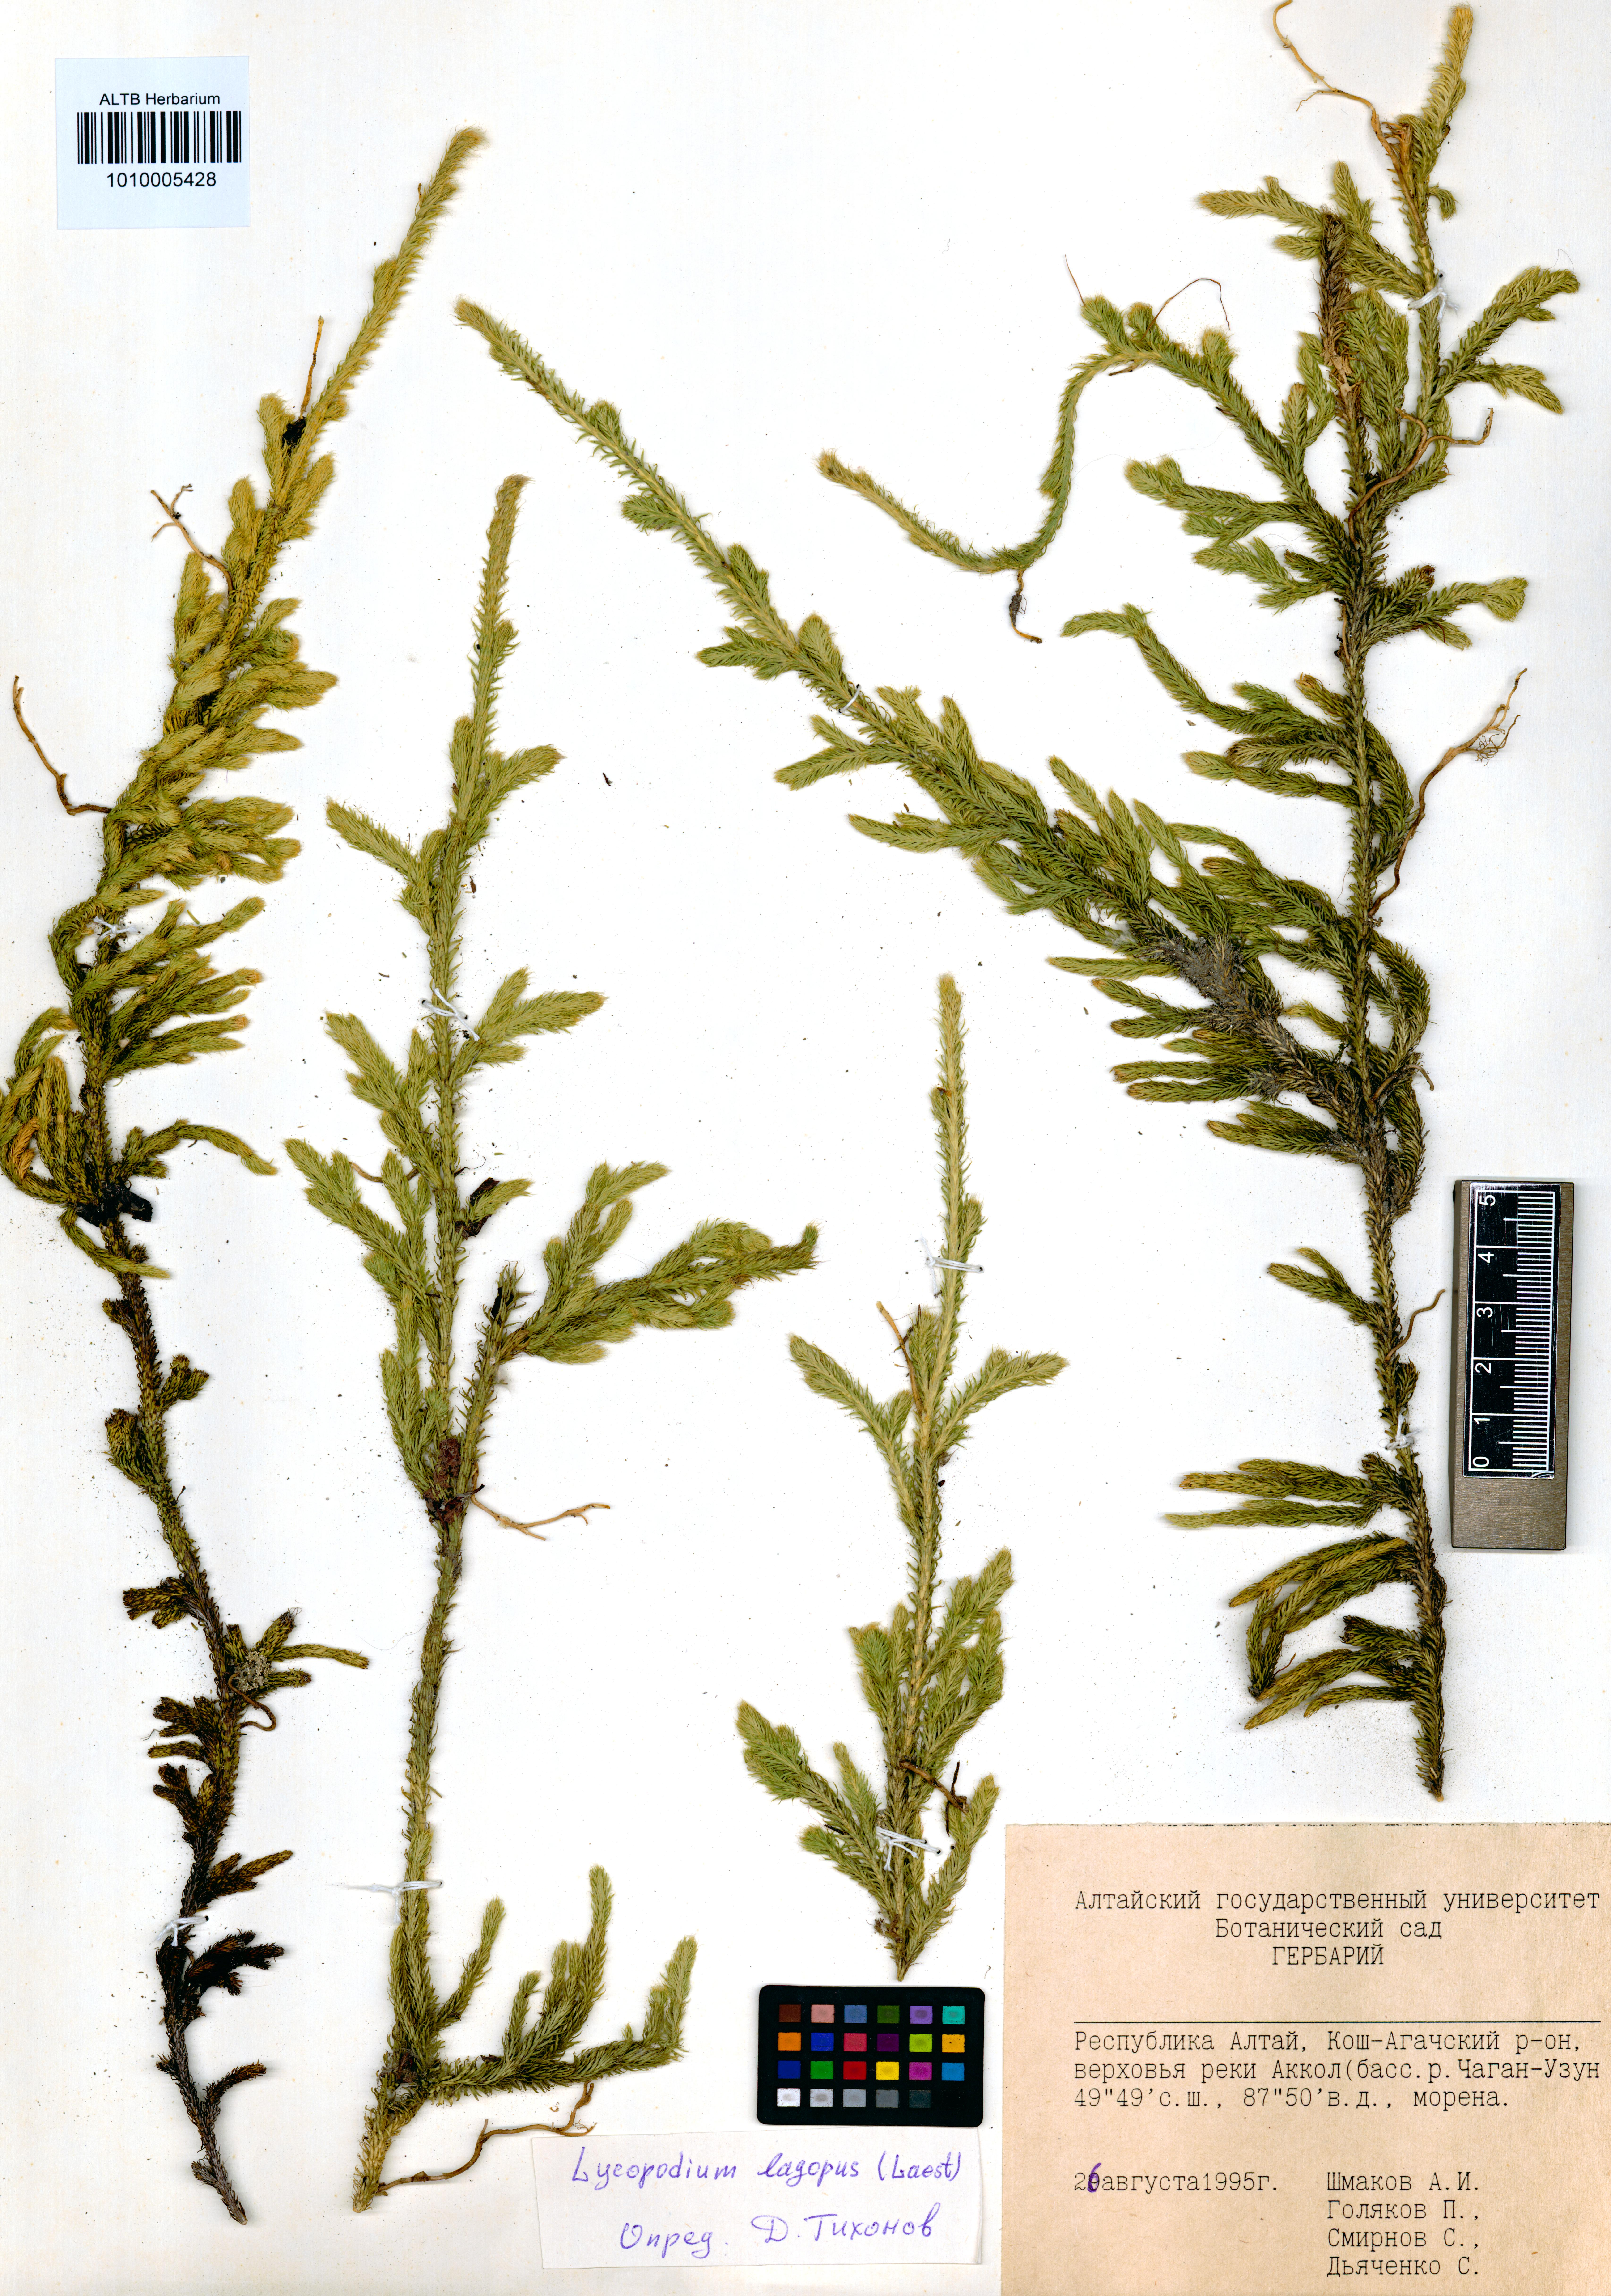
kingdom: Plantae
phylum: Tracheophyta
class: Lycopodiopsida
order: Lycopodiales
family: Lycopodiaceae
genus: Lycopodium
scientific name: Lycopodium lagopus
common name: One-cone clubmoss
